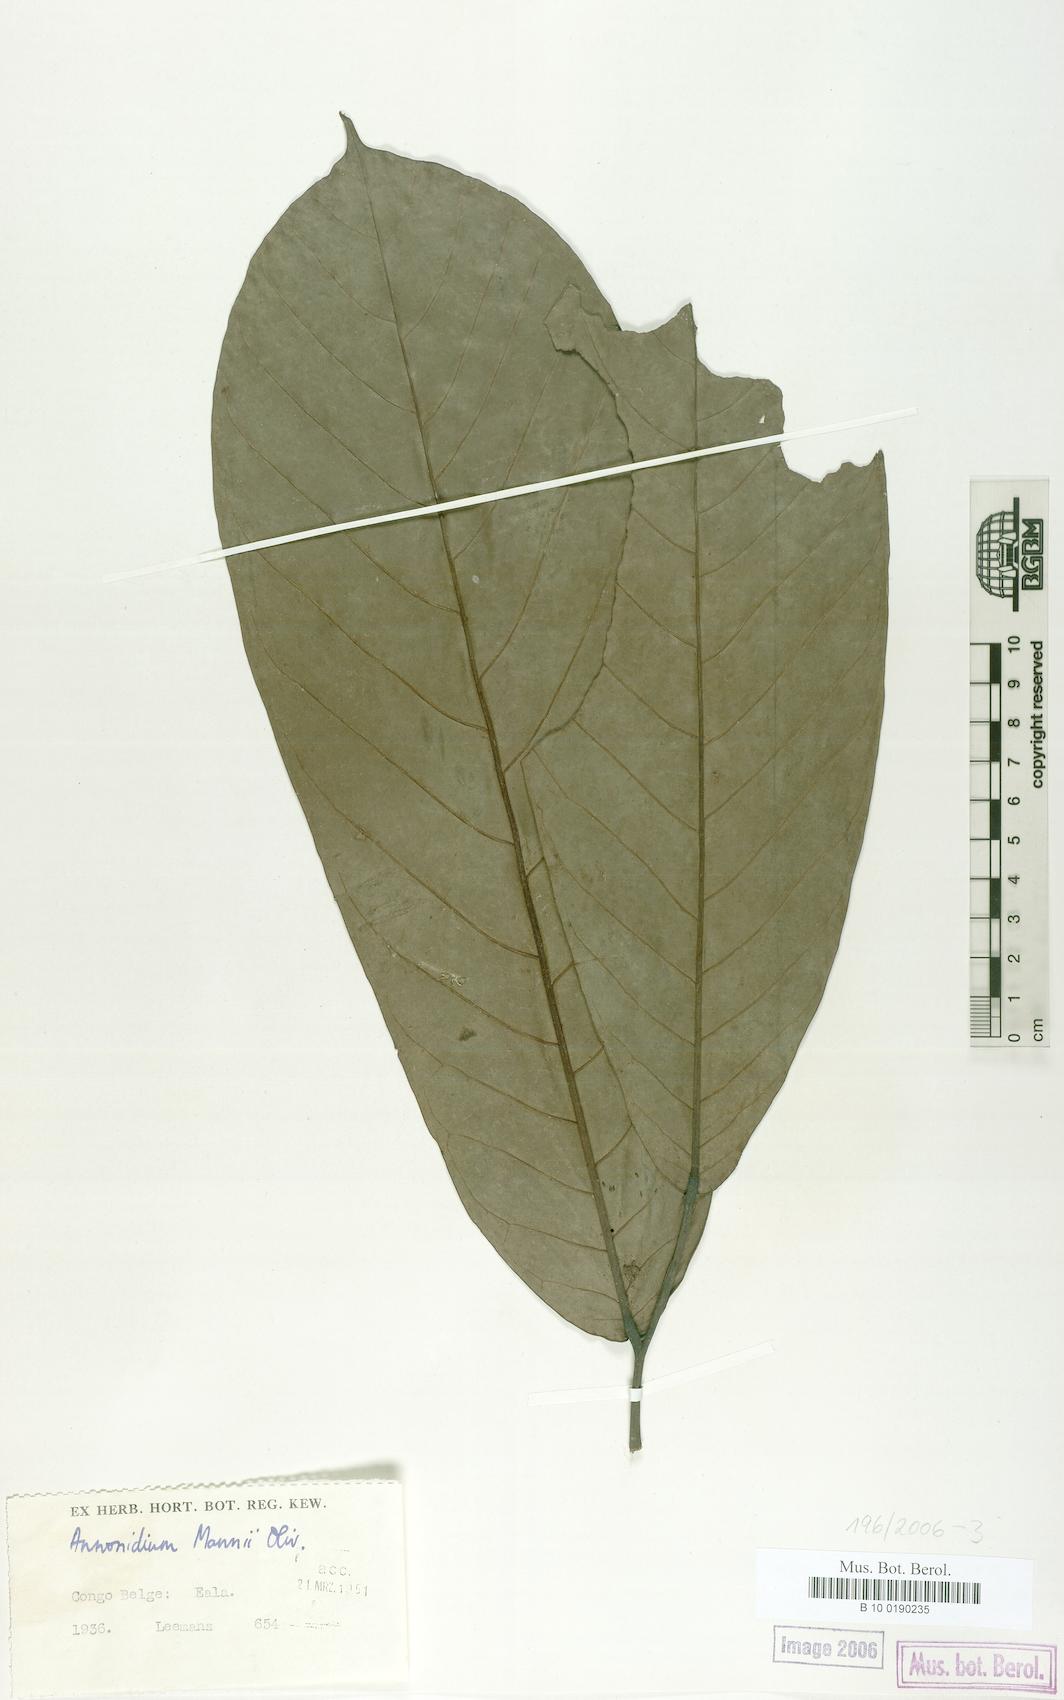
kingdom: Plantae
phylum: Tracheophyta
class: Magnoliopsida
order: Magnoliales
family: Annonaceae
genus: Anonidium
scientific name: Anonidium mannii
